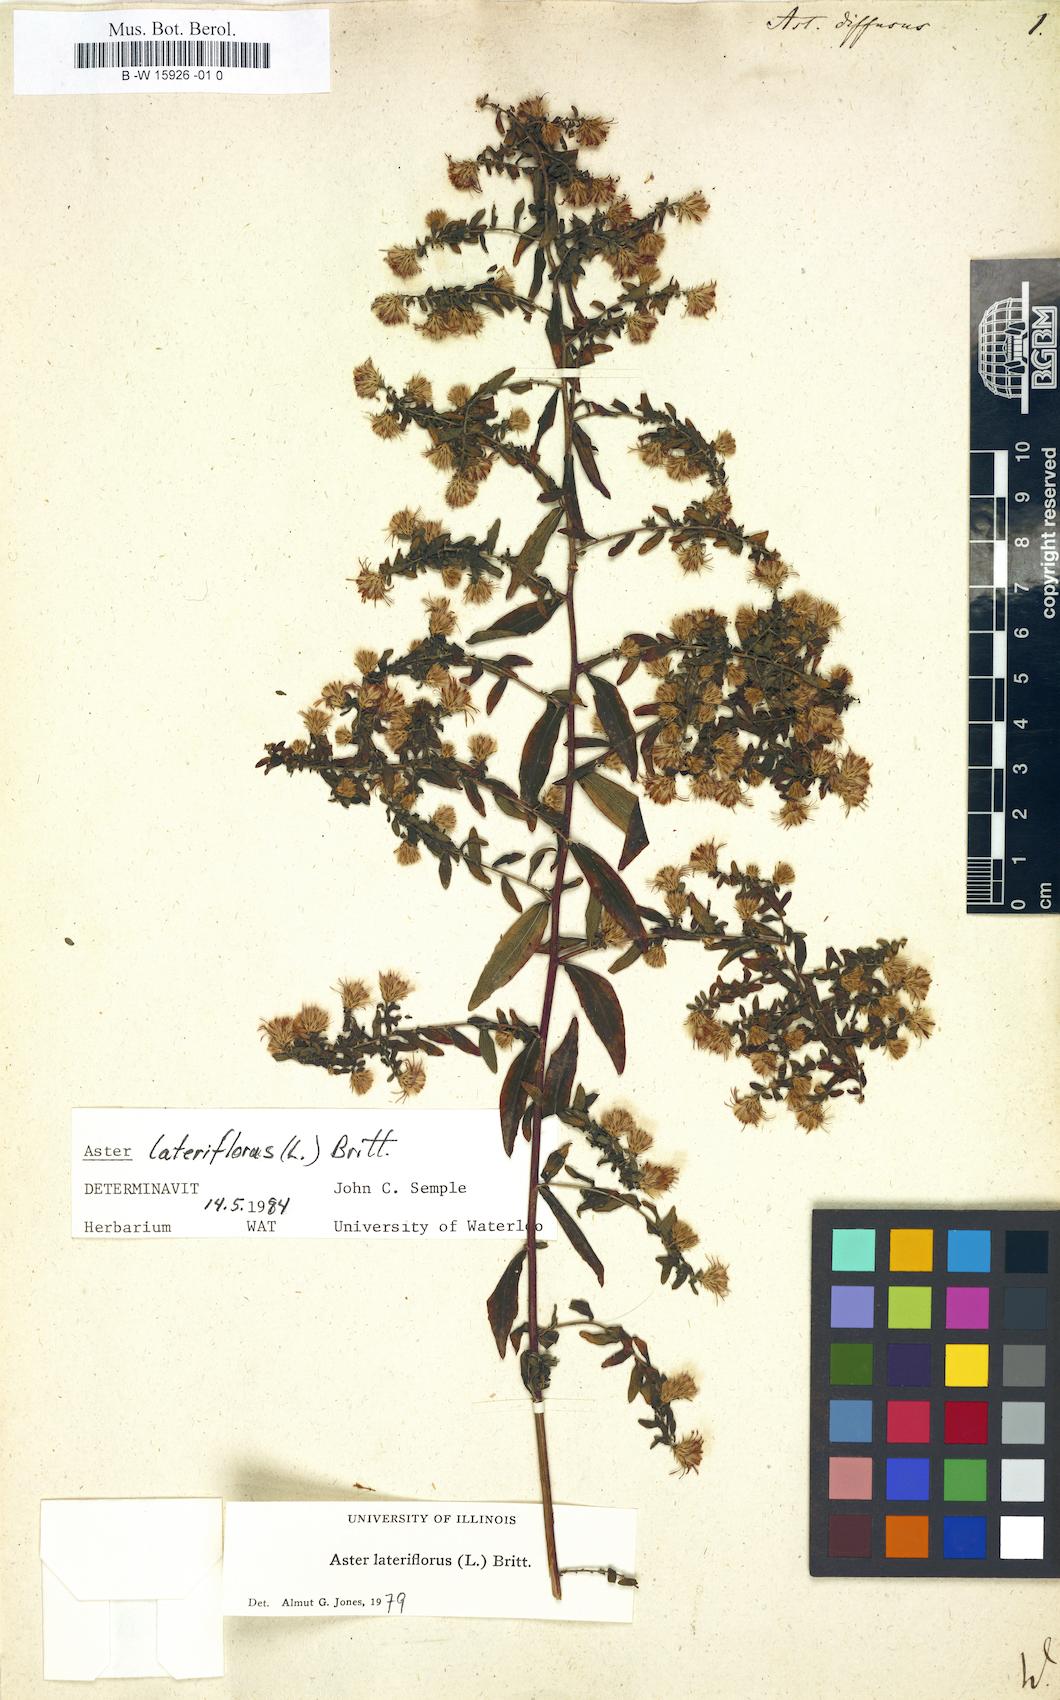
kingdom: Plantae
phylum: Tracheophyta
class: Magnoliopsida
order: Asterales
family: Asteraceae
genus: Aster
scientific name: Aster diffusus
